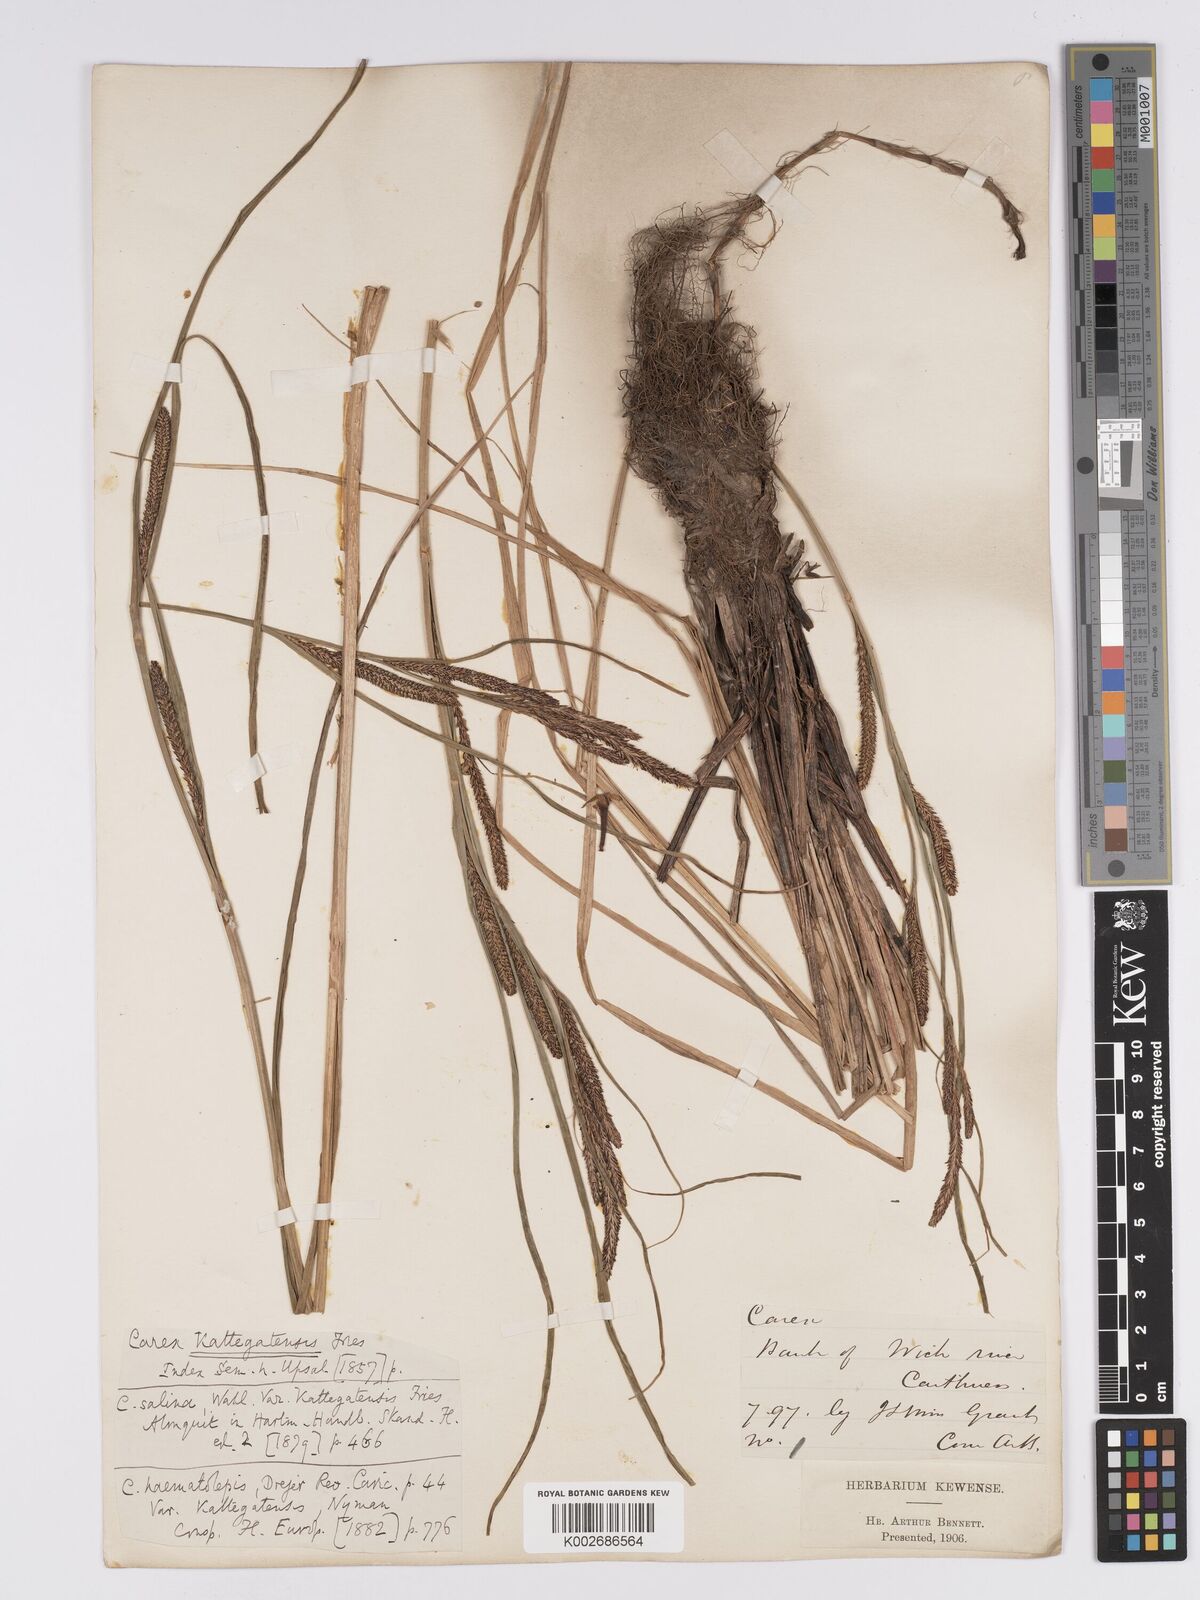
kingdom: Plantae
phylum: Tracheophyta
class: Liliopsida
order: Poales
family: Cyperaceae
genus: Carex
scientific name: Carex aquatilis
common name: Water sedge
